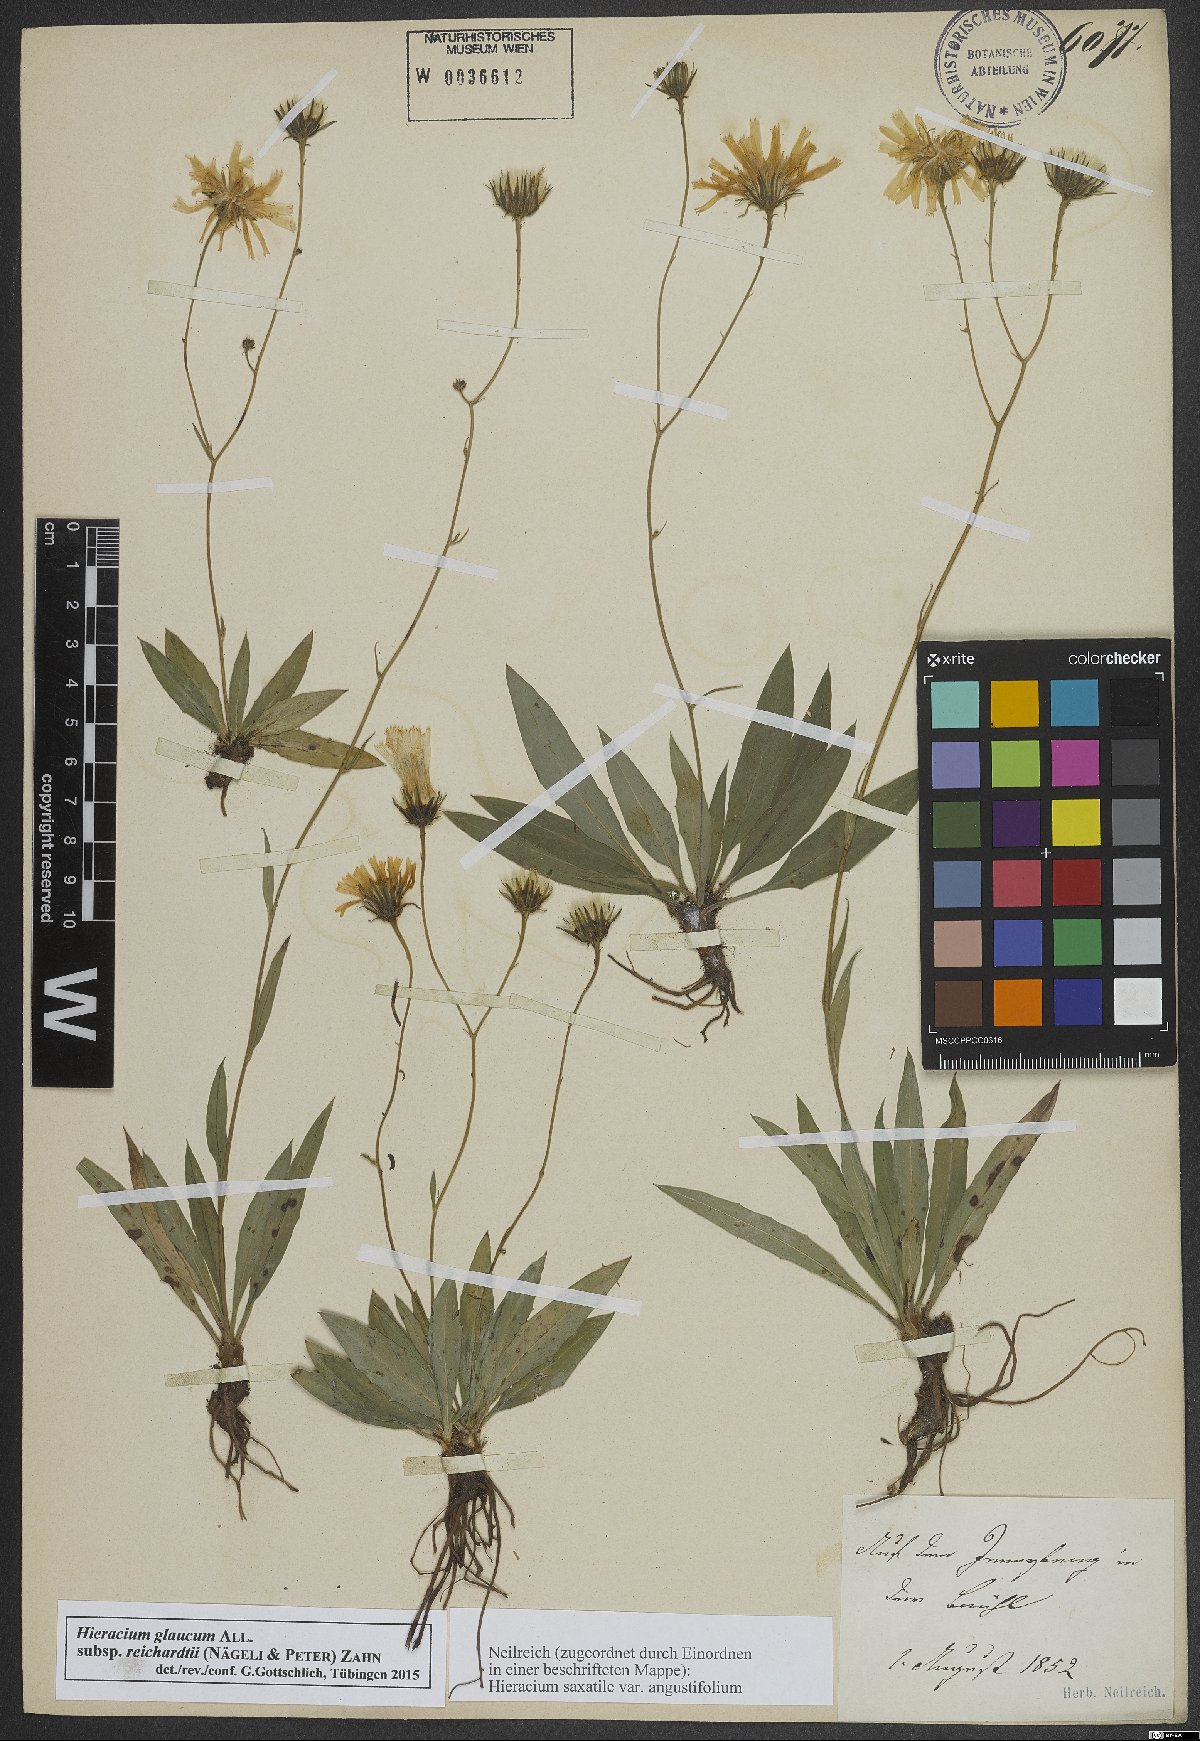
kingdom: Plantae
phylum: Tracheophyta
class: Magnoliopsida
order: Asterales
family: Asteraceae
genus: Hieracium
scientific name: Hieracium glaucum
